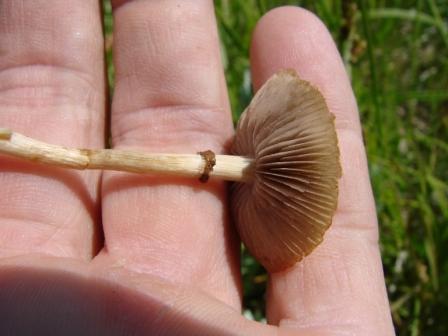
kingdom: Fungi
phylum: Basidiomycota
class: Agaricomycetes
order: Agaricales
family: Strophariaceae
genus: Agrocybe
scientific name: Agrocybe elatella
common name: mose-agerhat
